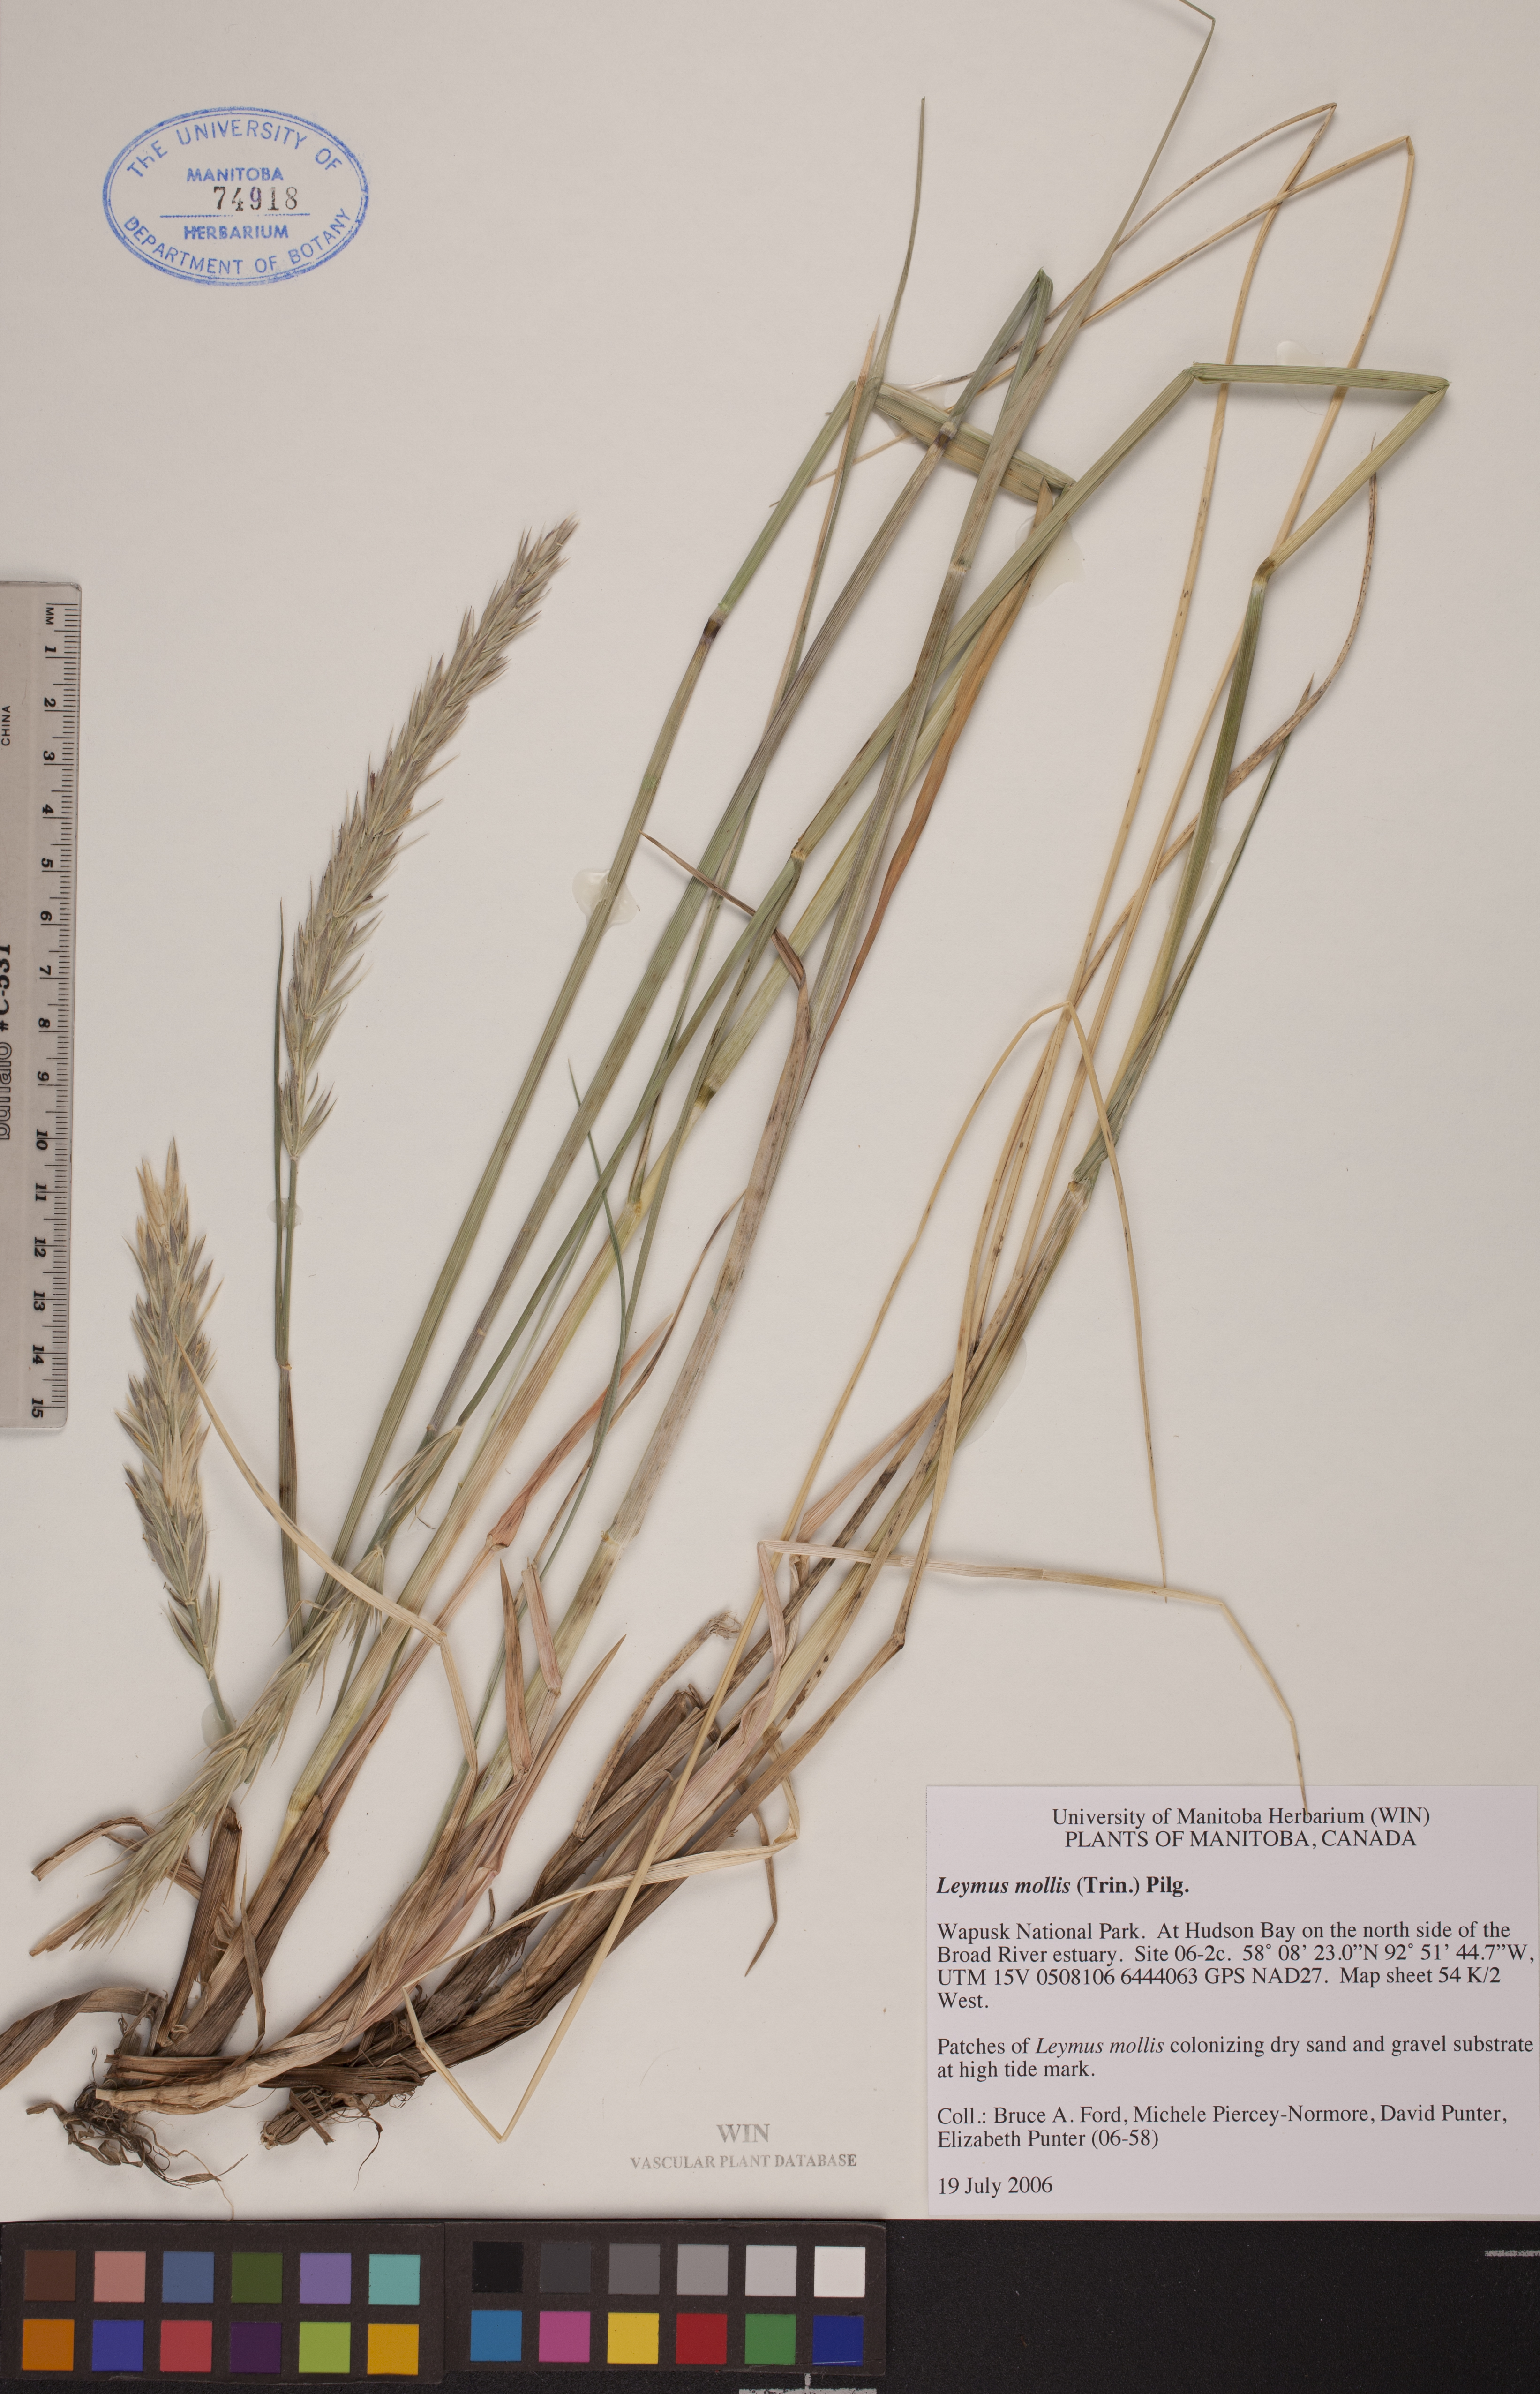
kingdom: Plantae
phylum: Tracheophyta
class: Liliopsida
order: Poales
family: Poaceae
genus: Leymus
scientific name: Leymus mollis
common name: American dune grass
